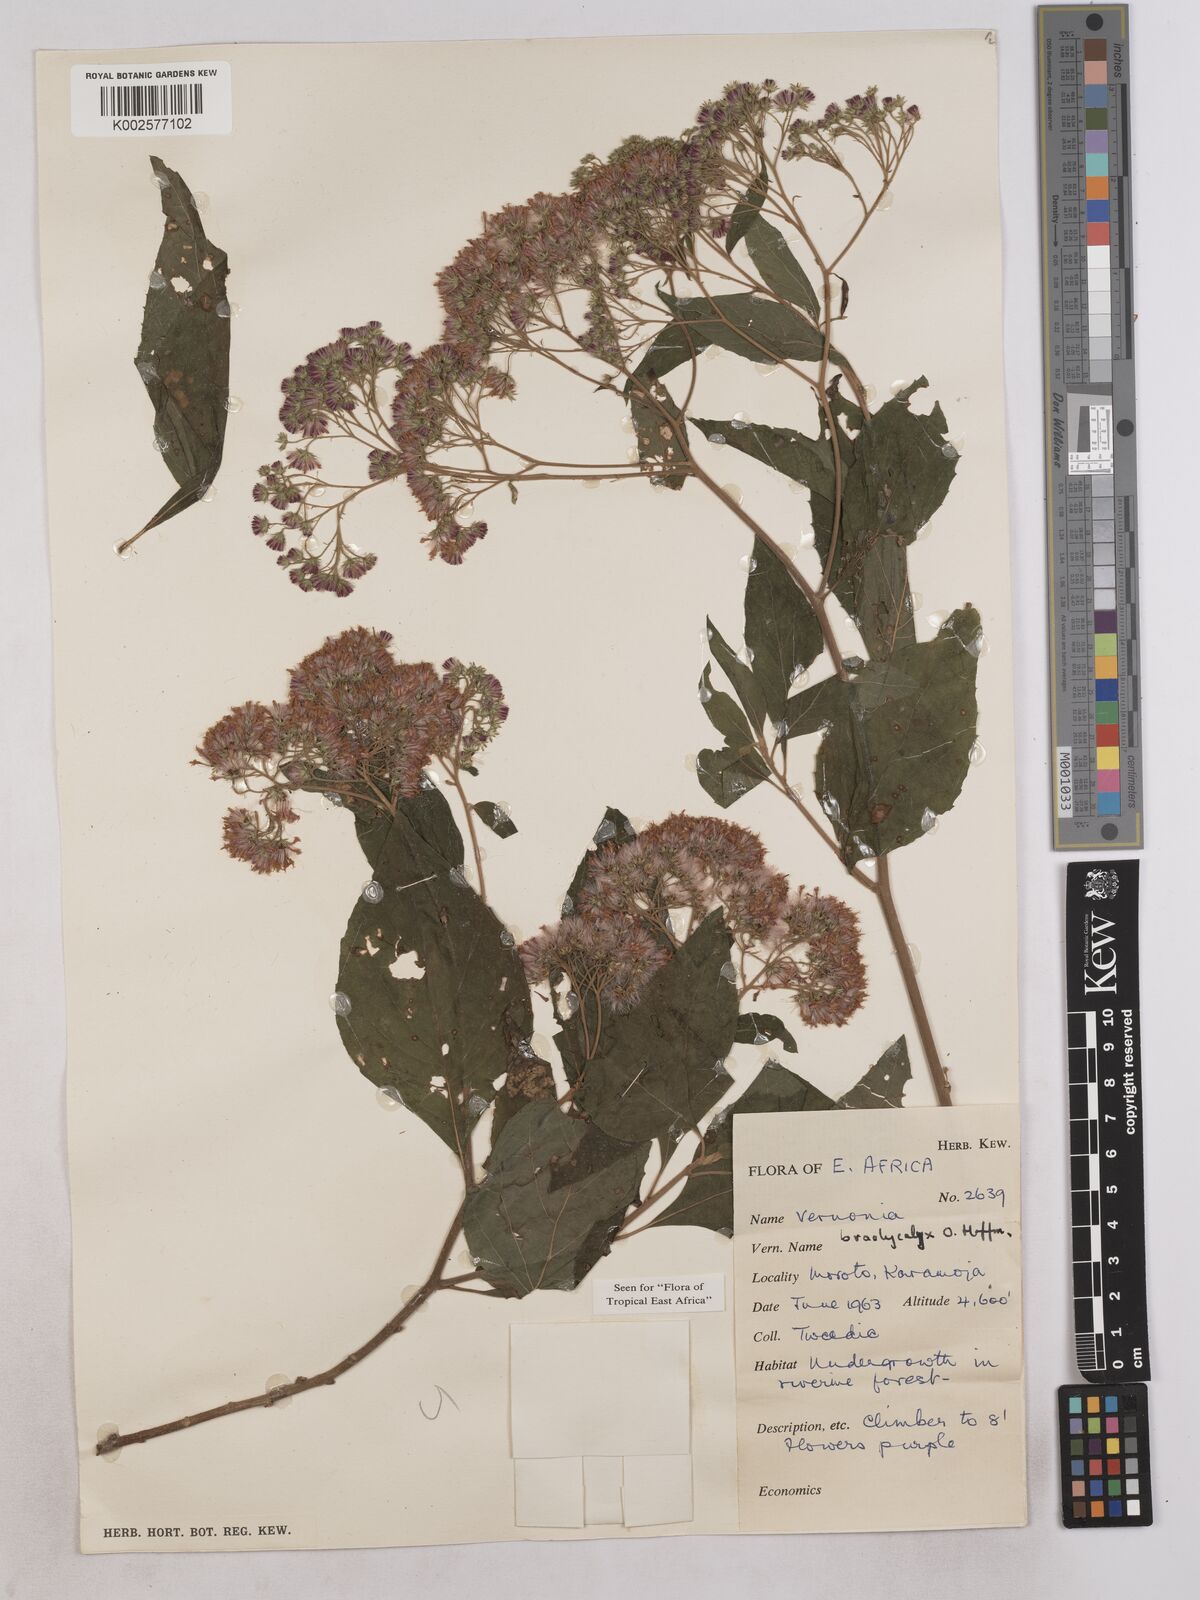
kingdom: Plantae
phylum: Tracheophyta
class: Magnoliopsida
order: Asterales
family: Asteraceae
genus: Hoffmannanthus
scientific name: Hoffmannanthus abbotianus
